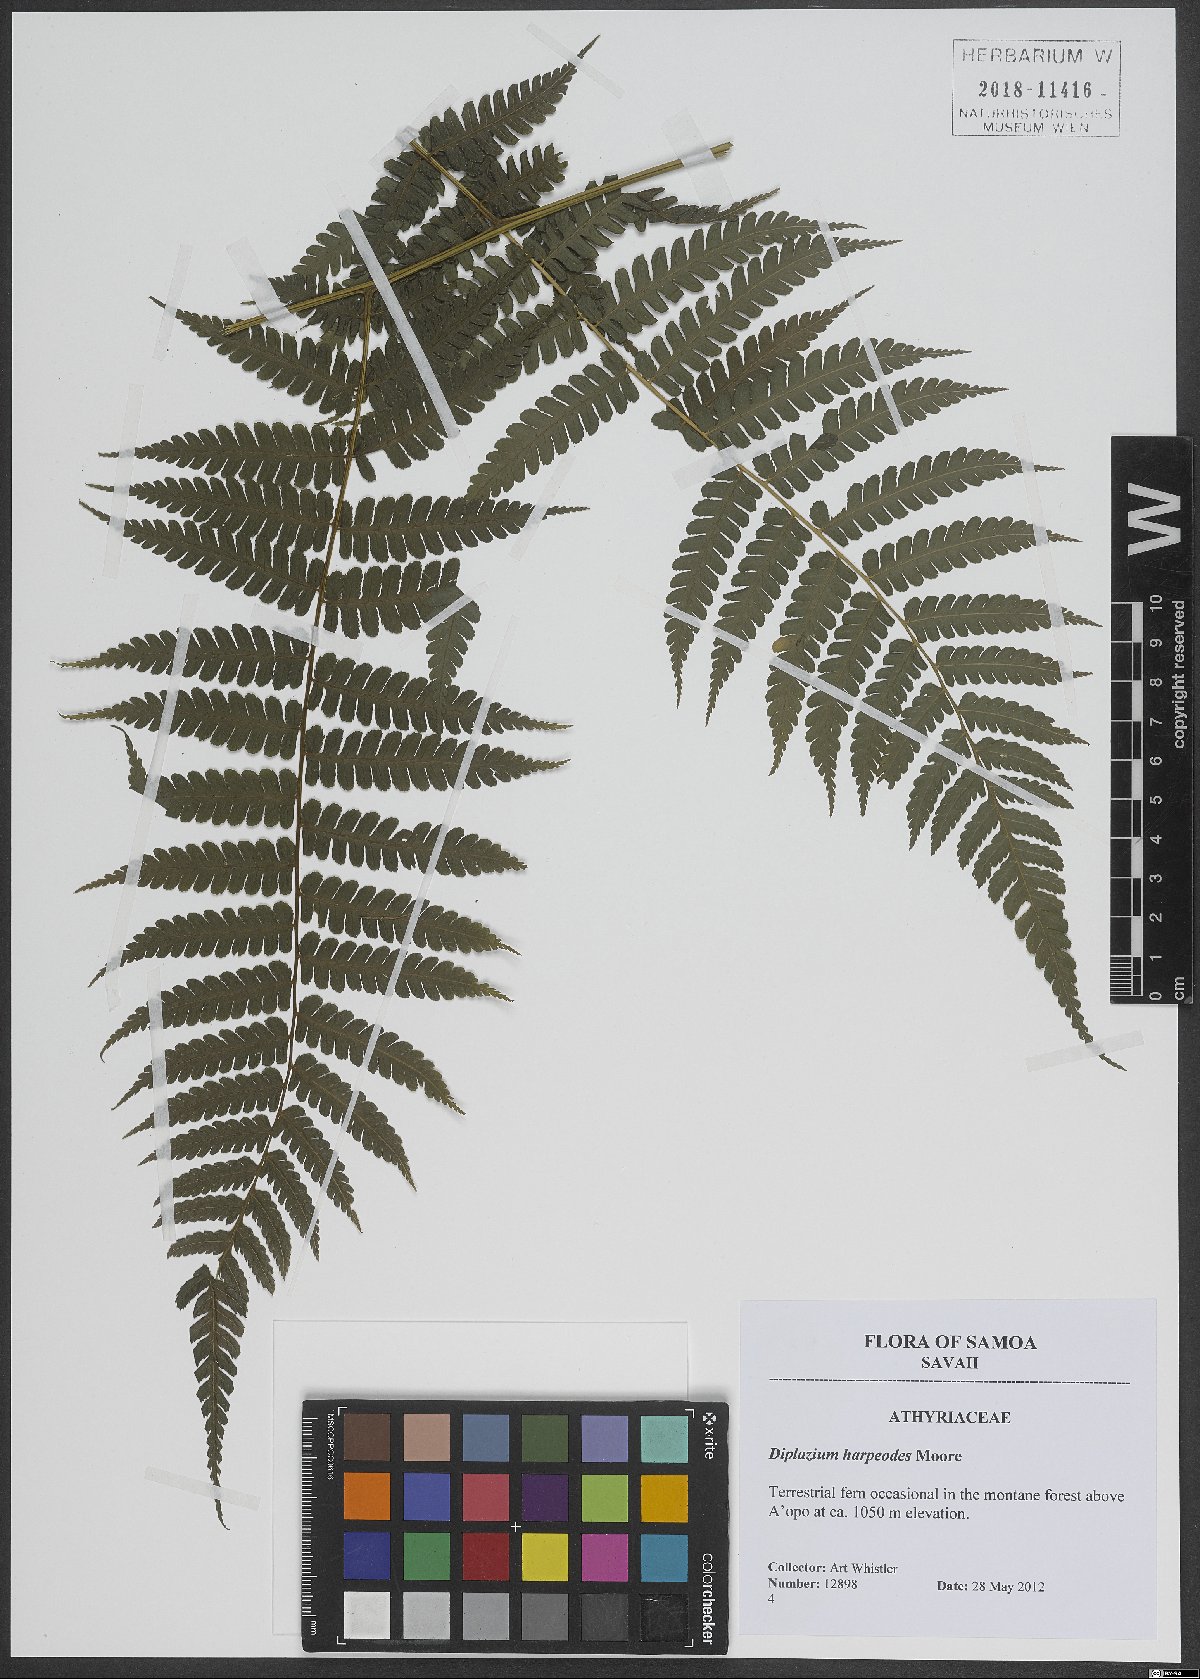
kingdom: Plantae
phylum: Tracheophyta
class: Polypodiopsida
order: Polypodiales
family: Athyriaceae
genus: Diplazium
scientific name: Diplazium harpeodes
